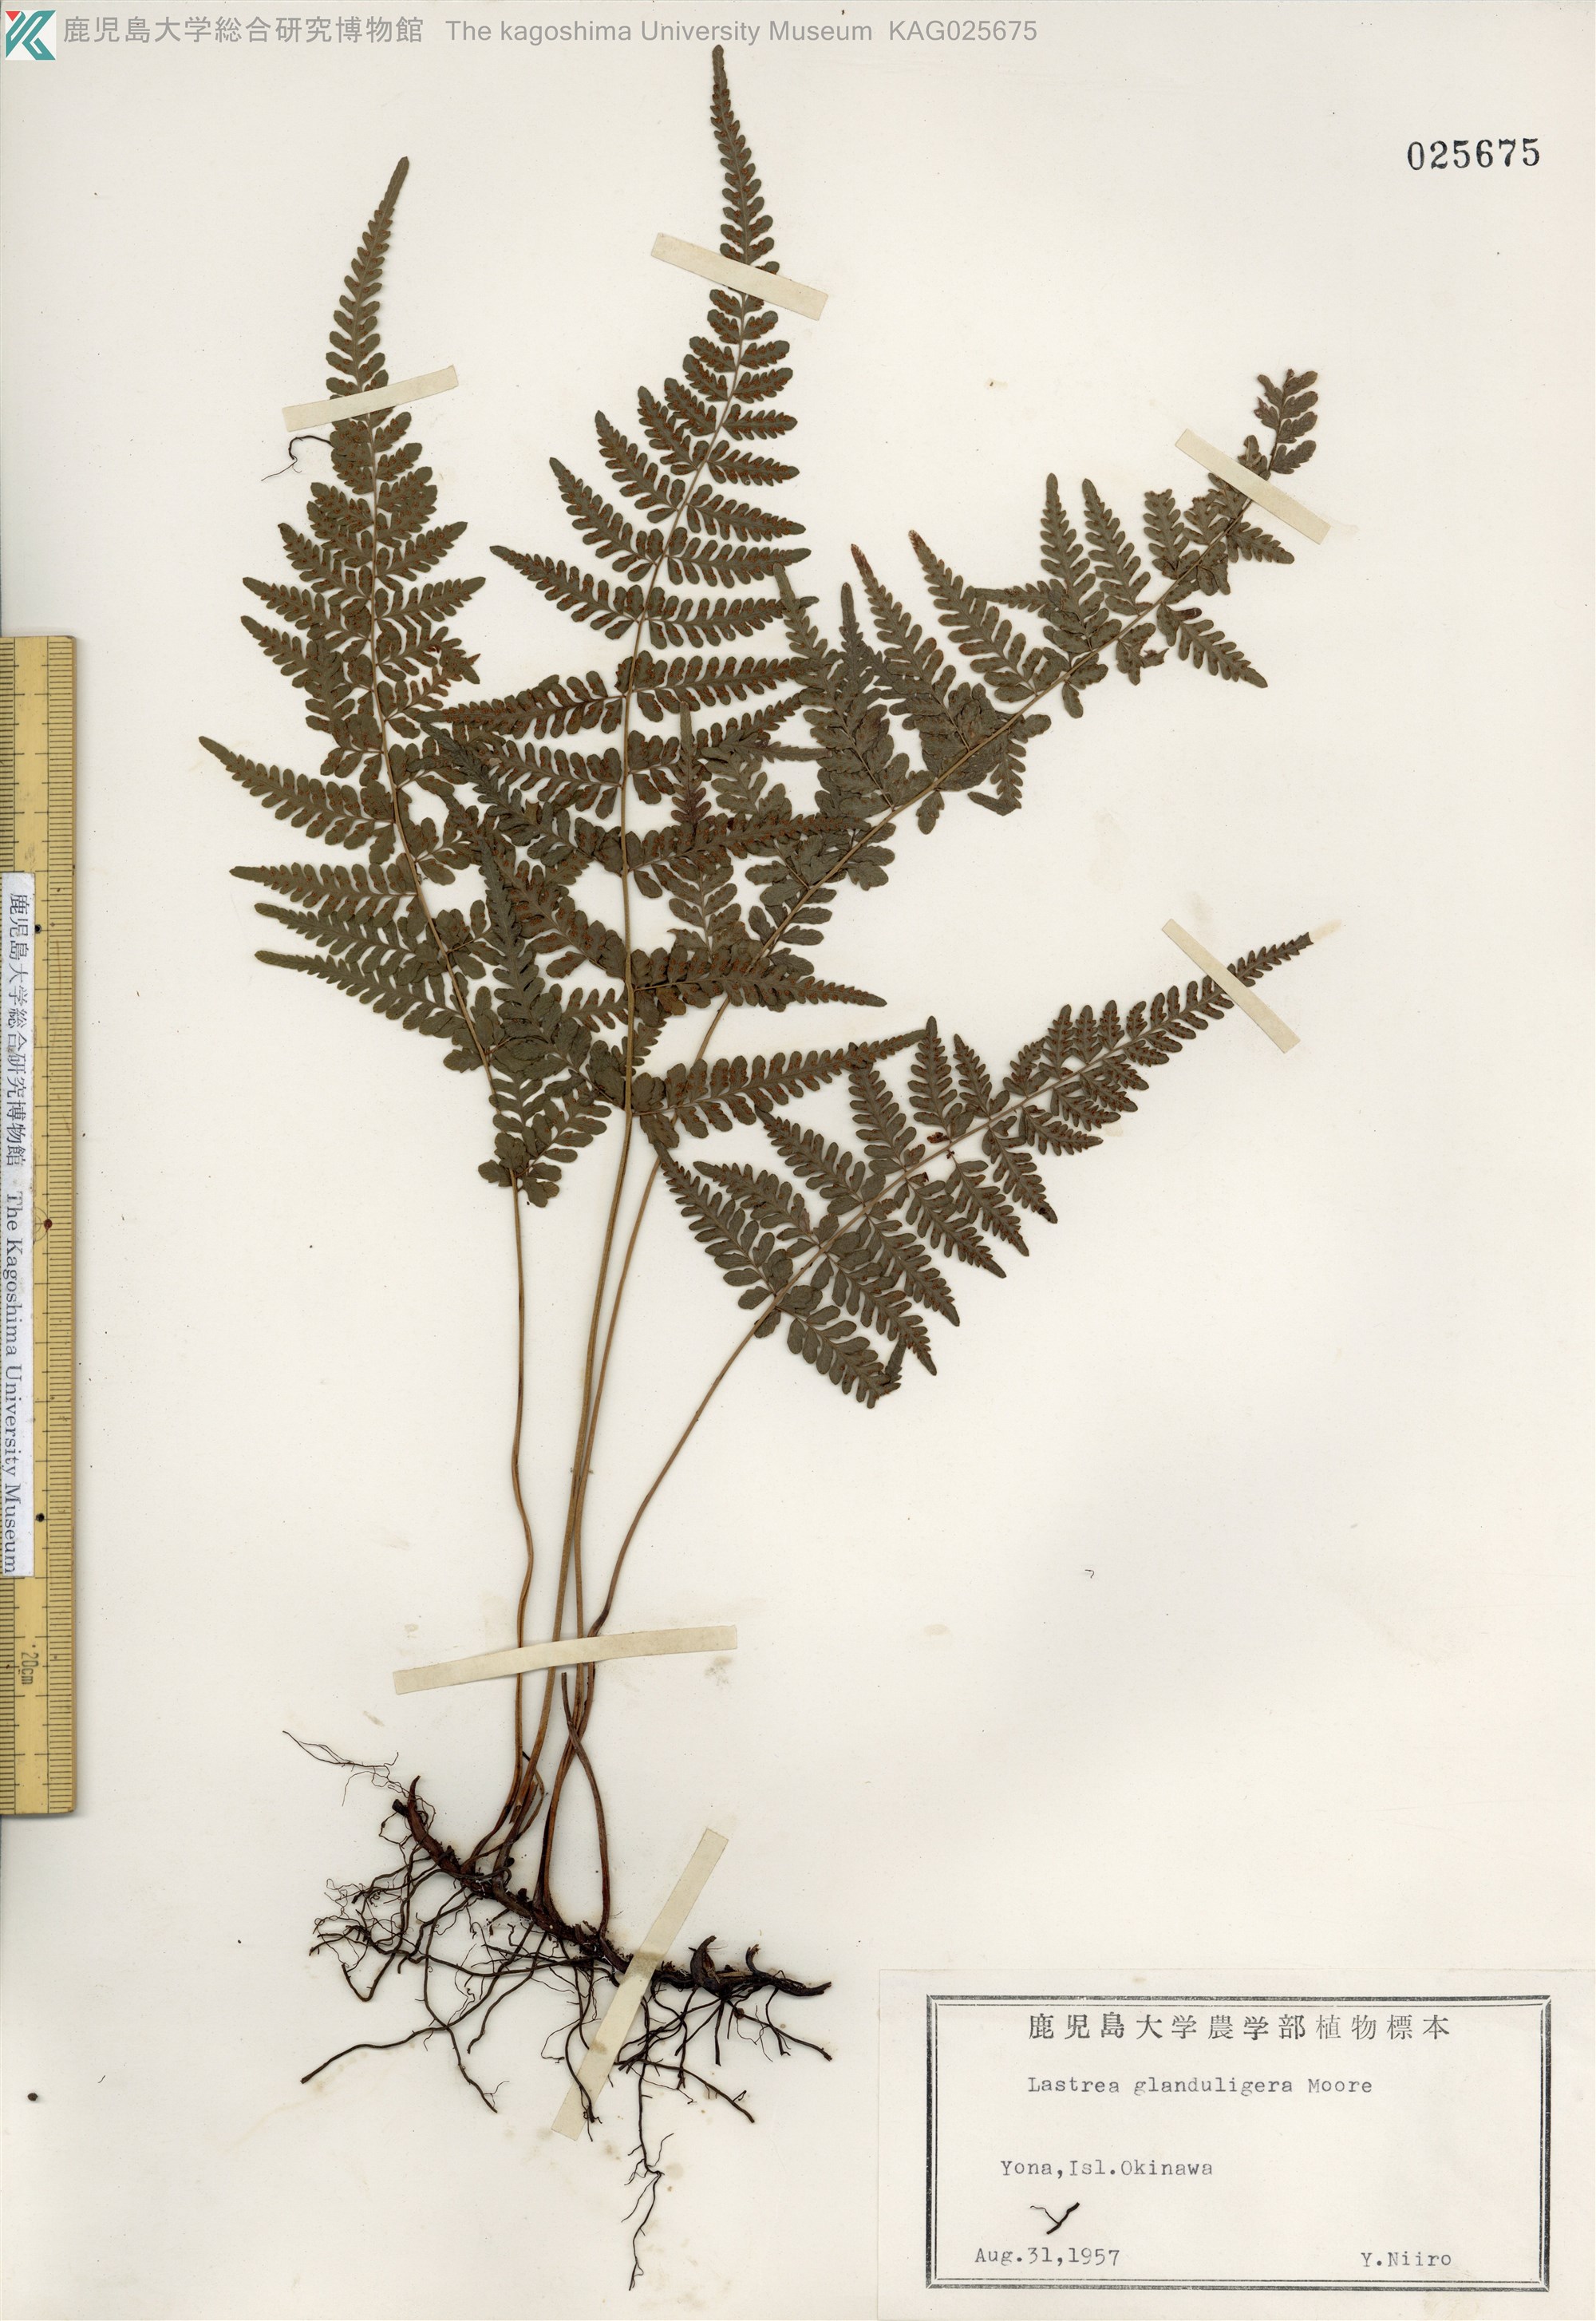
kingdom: Plantae
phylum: Tracheophyta
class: Polypodiopsida
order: Polypodiales
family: Thelypteridaceae
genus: Amauropelta
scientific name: Amauropelta angustifrons
